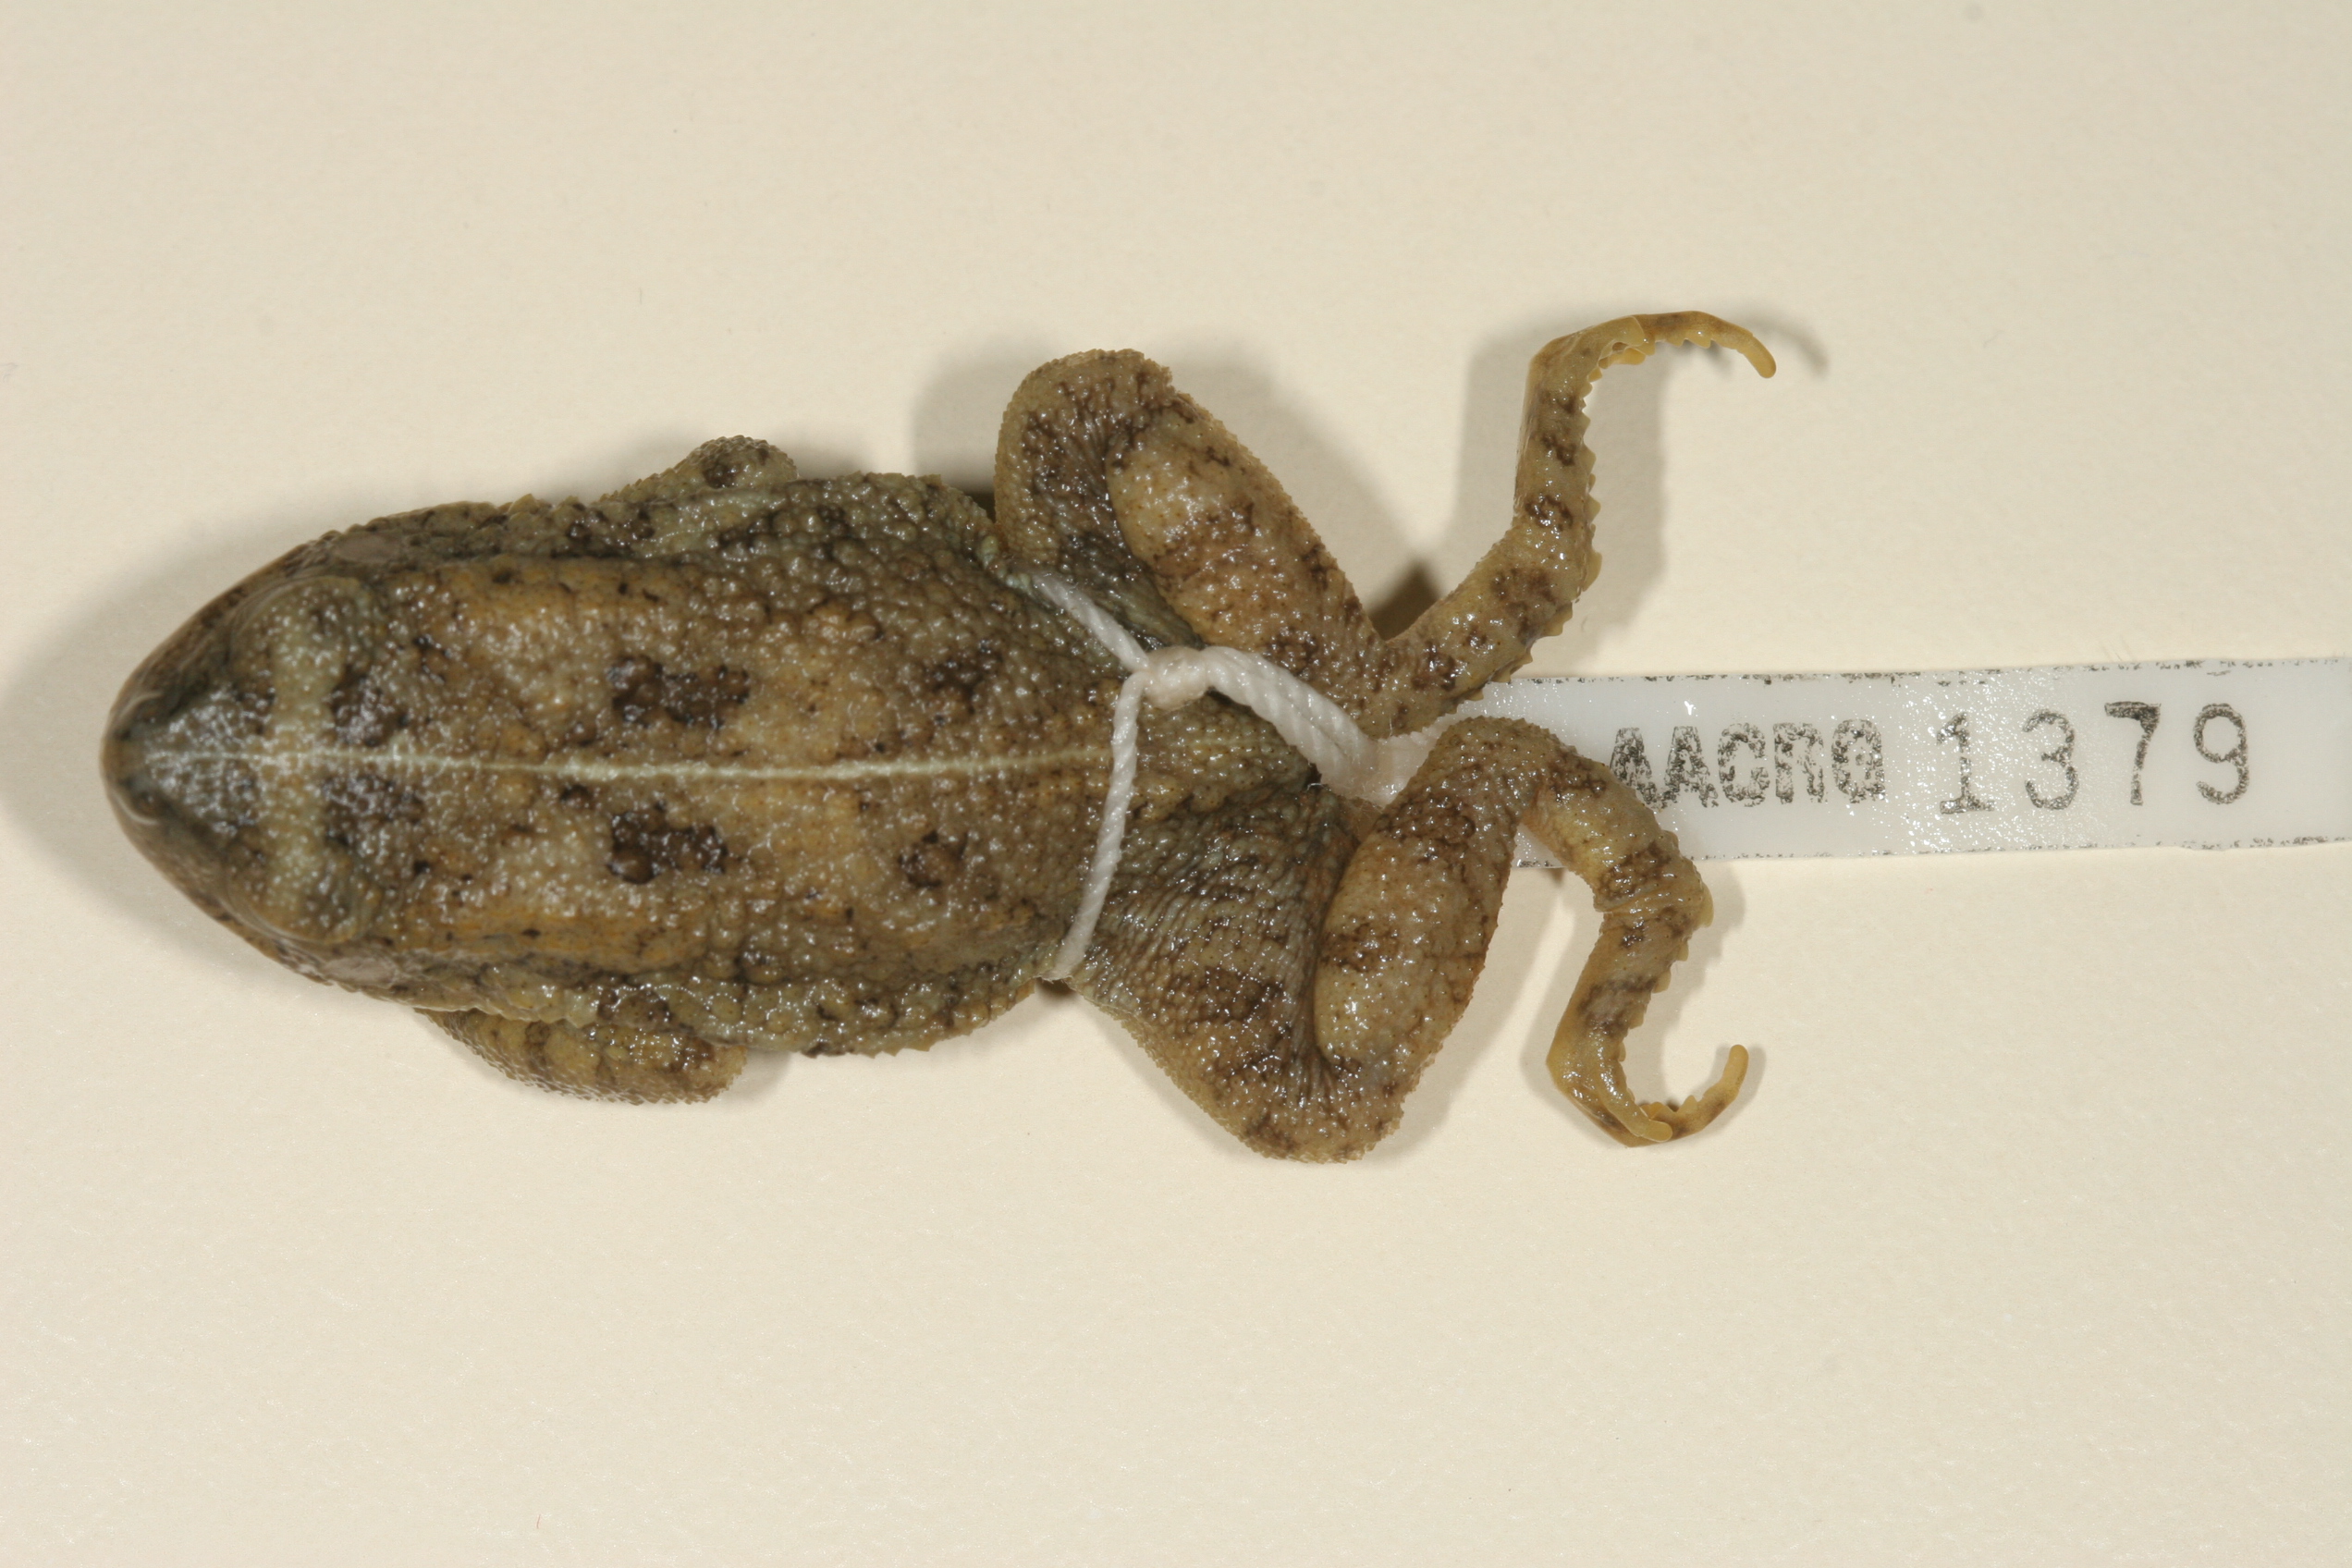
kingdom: Animalia
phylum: Chordata
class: Amphibia
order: Anura
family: Bufonidae
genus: Sclerophrys
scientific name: Sclerophrys maculata
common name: Hallowell's toad
